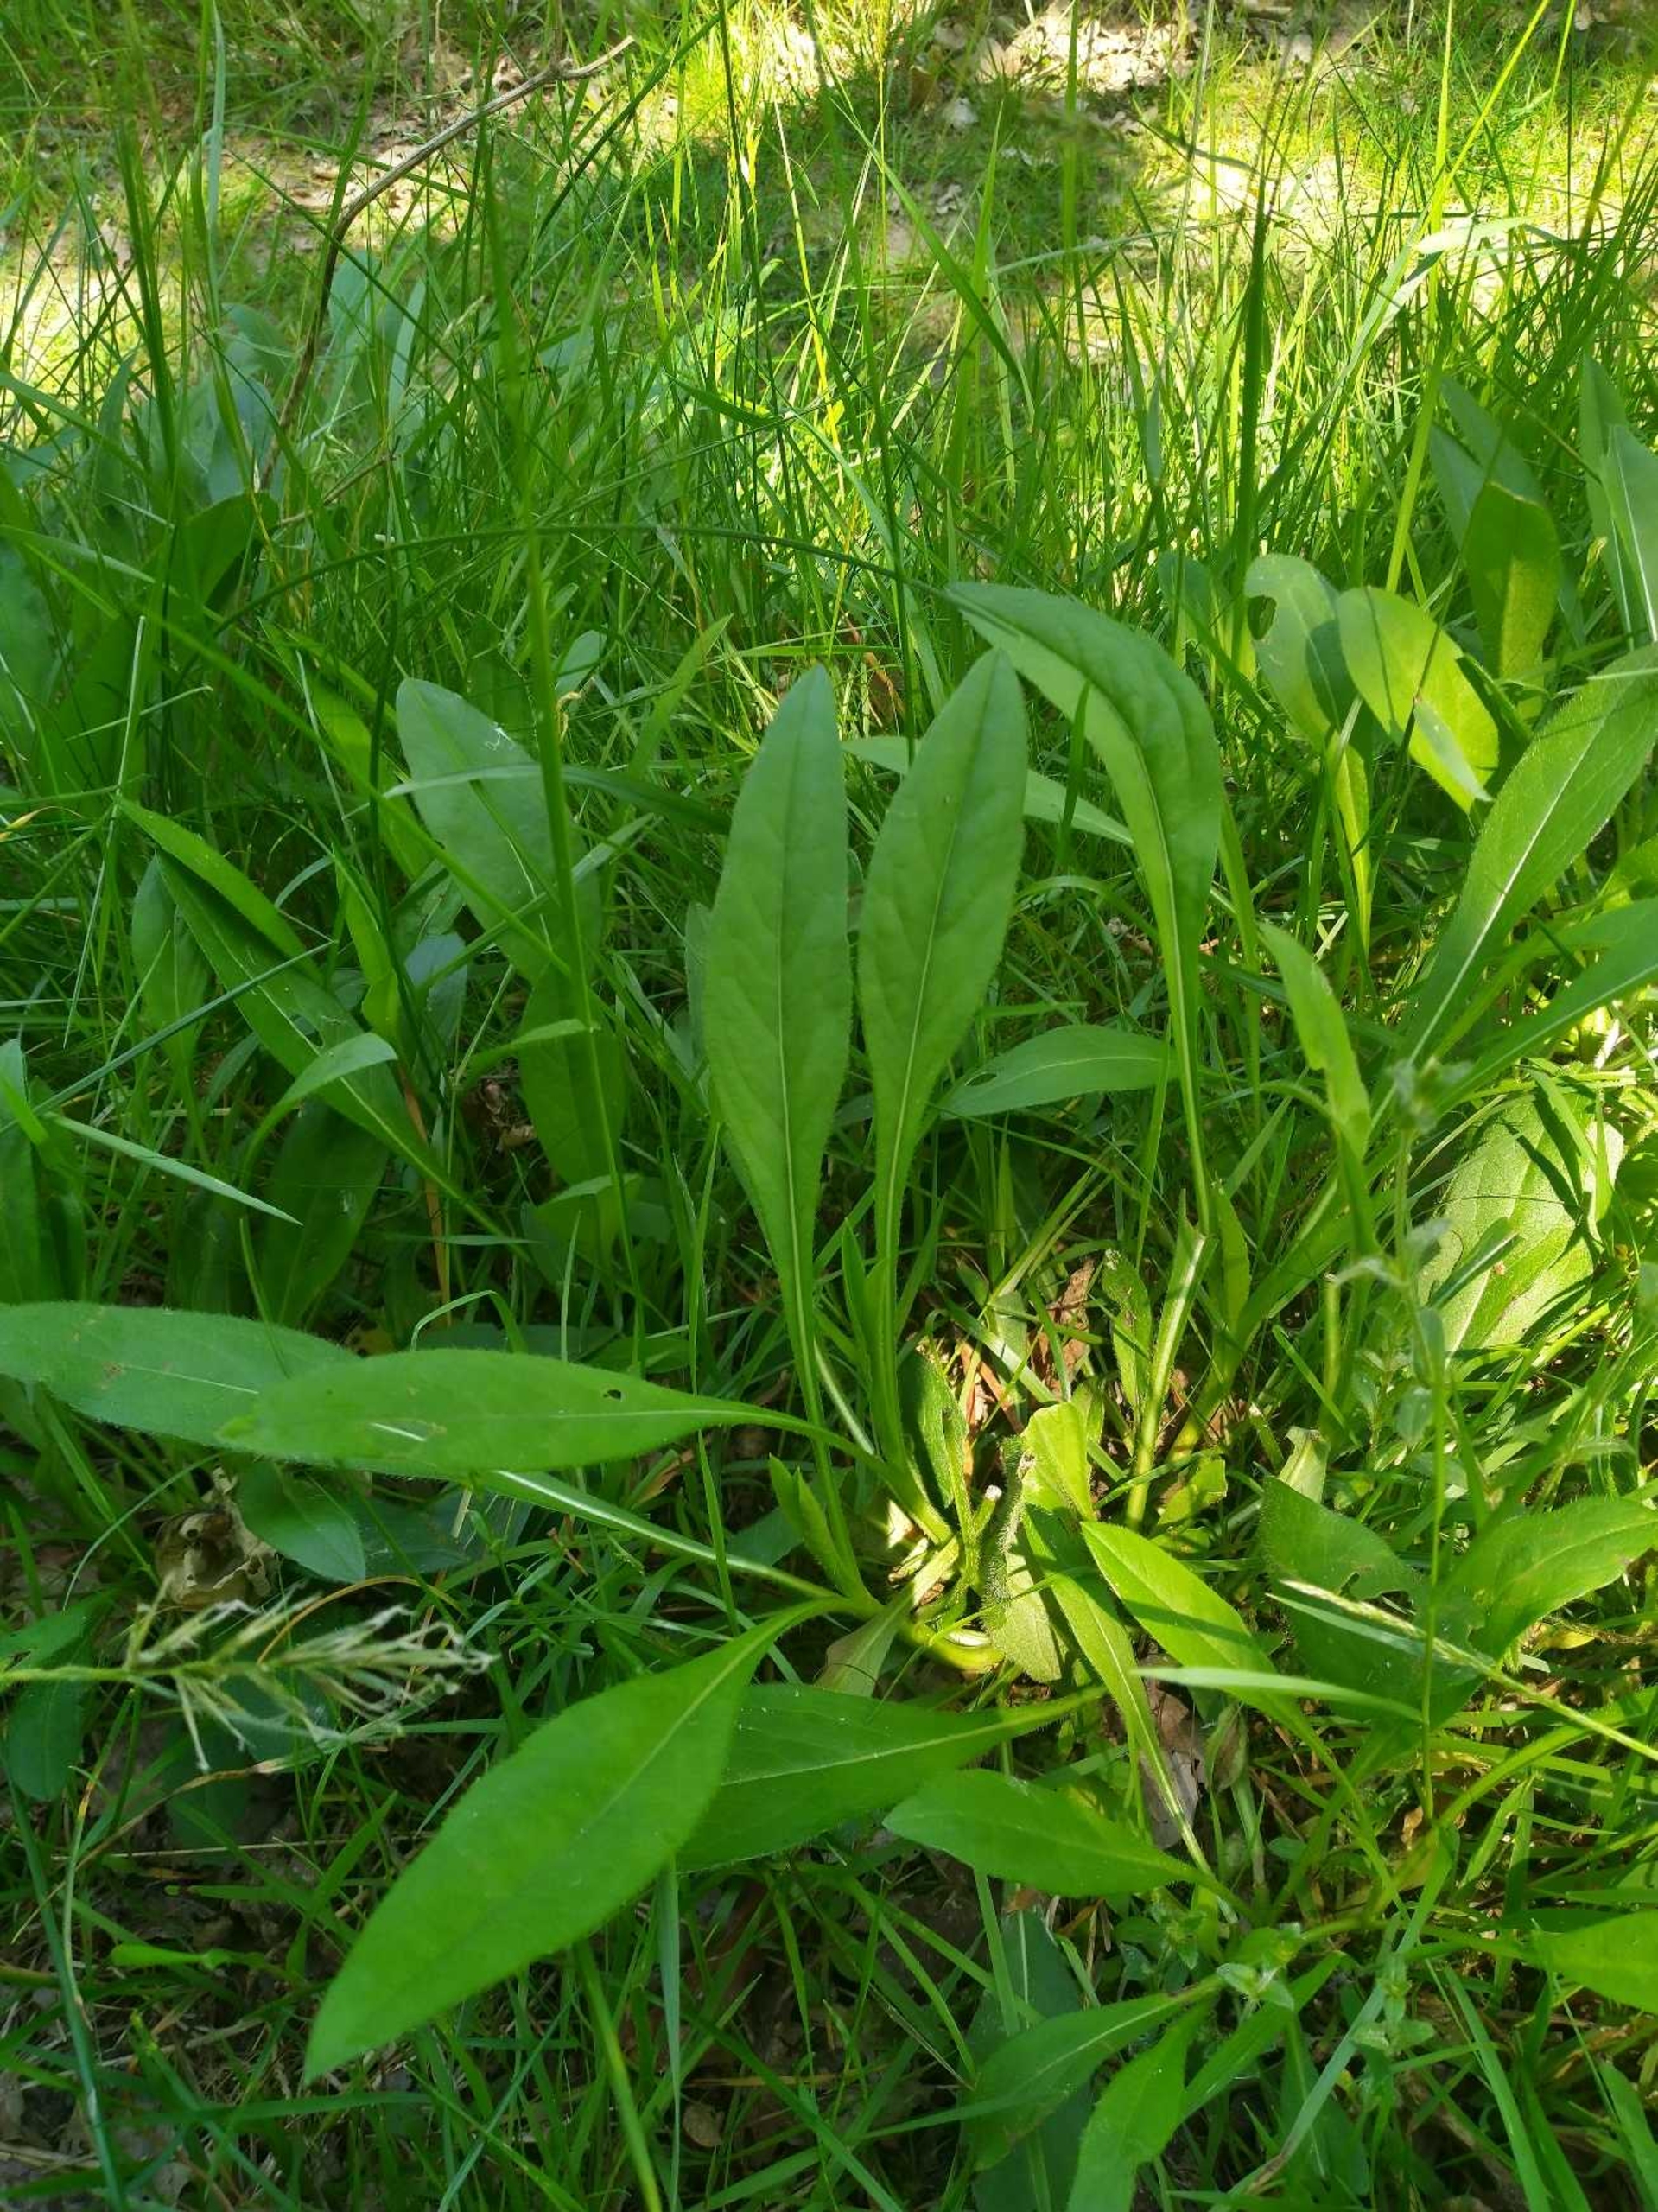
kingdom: Plantae
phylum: Tracheophyta
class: Magnoliopsida
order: Dipsacales
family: Caprifoliaceae
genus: Succisa
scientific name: Succisa pratensis
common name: Djævelsbid
